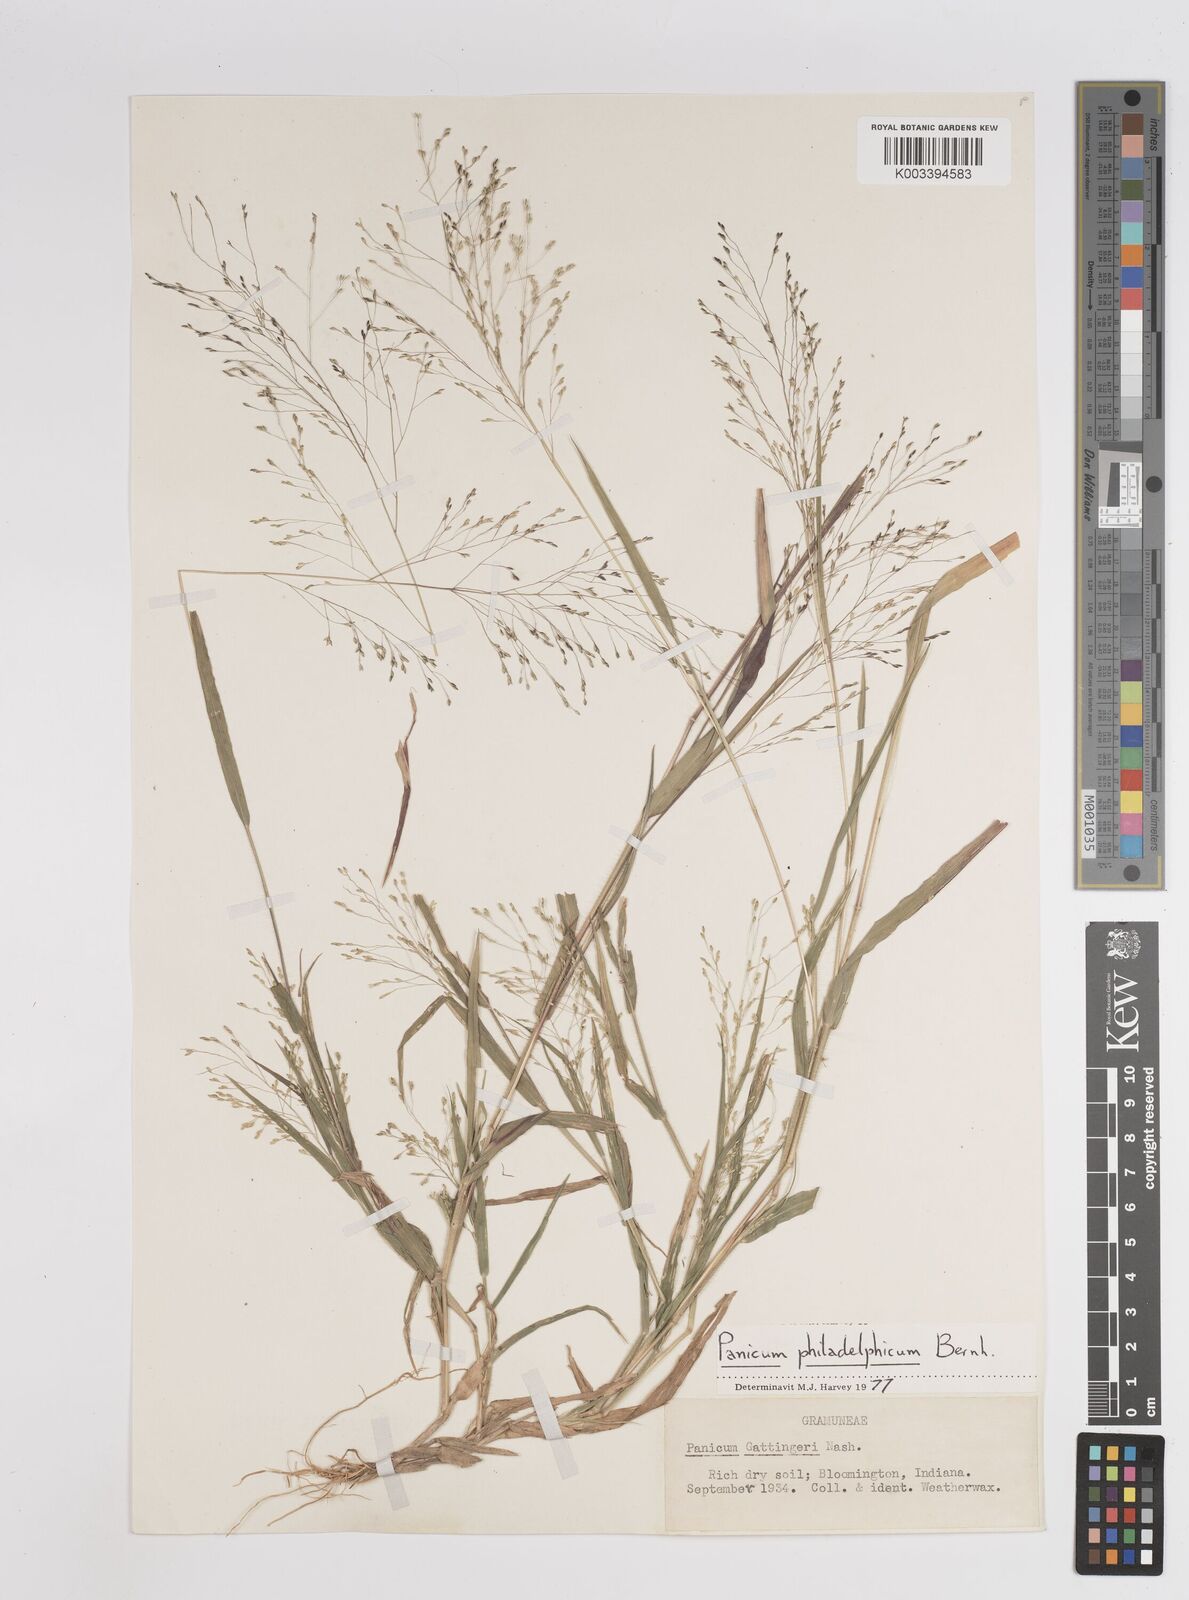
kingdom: Plantae
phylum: Tracheophyta
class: Liliopsida
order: Poales
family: Poaceae
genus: Panicum
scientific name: Panicum philadelphicum
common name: Philadelphia witchgrass
